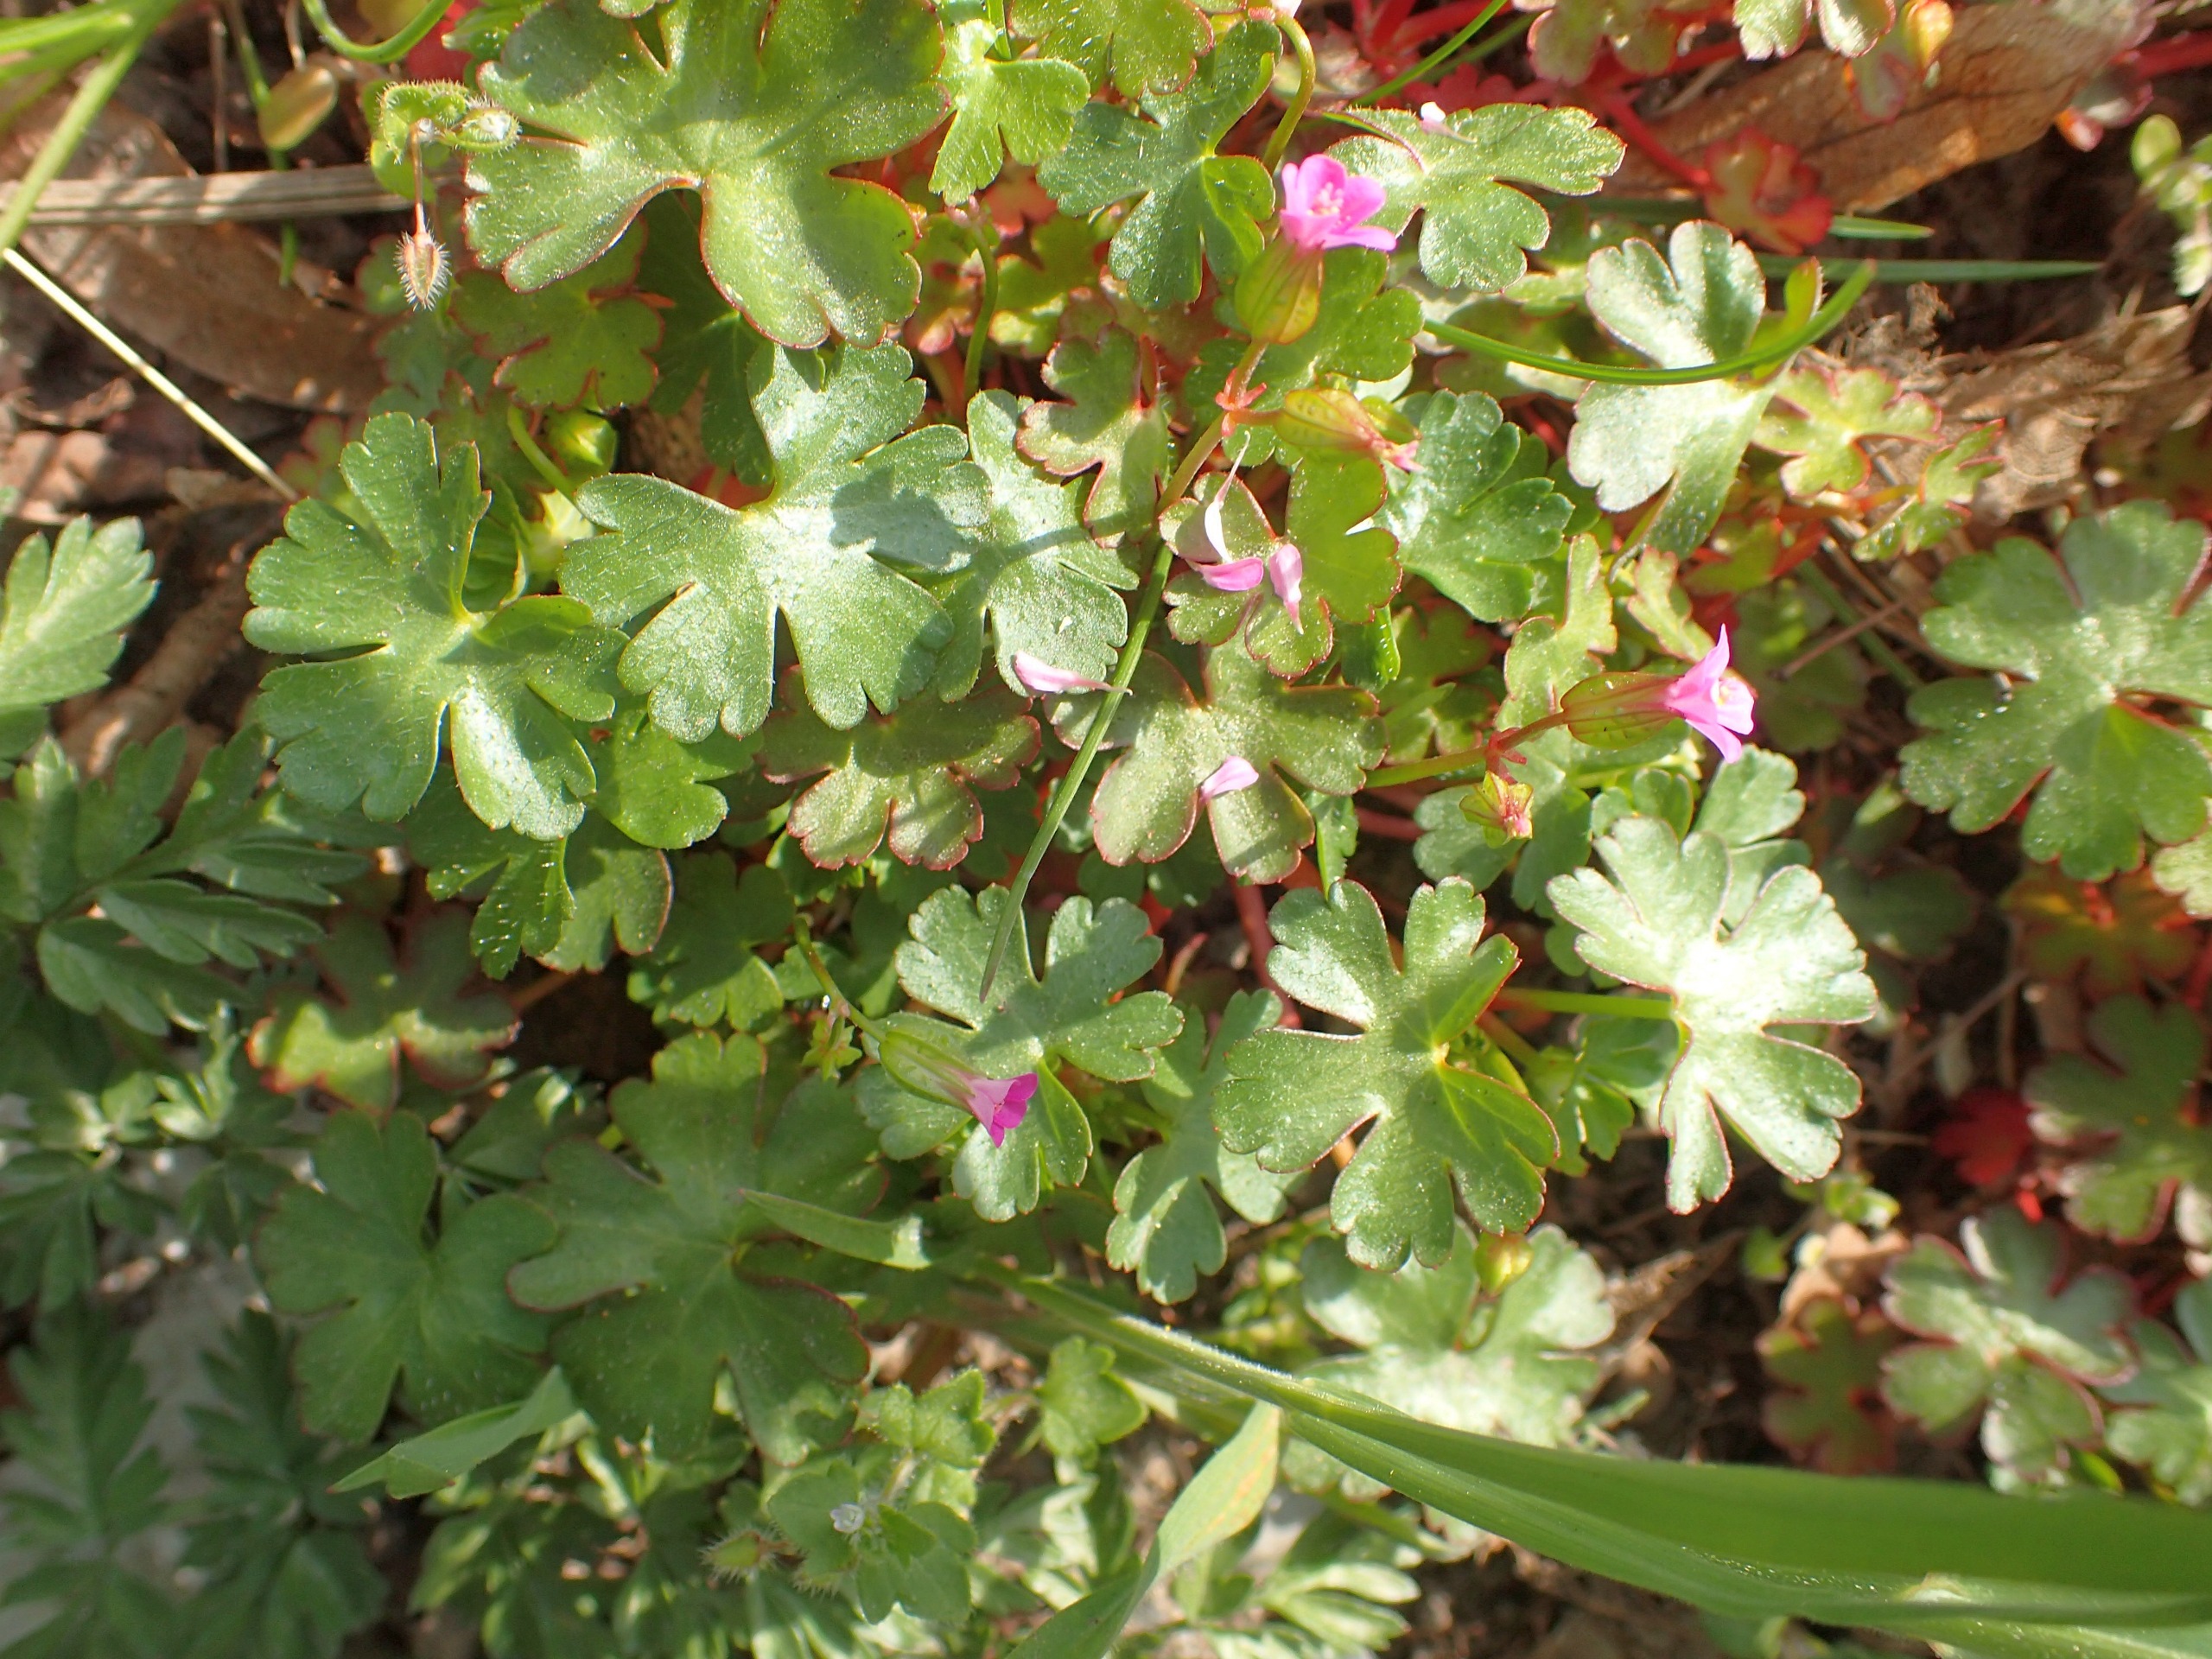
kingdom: Plantae
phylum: Tracheophyta
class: Magnoliopsida
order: Geraniales
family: Geraniaceae
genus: Geranium
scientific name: Geranium lucidum
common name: Skinnende storkenæb
